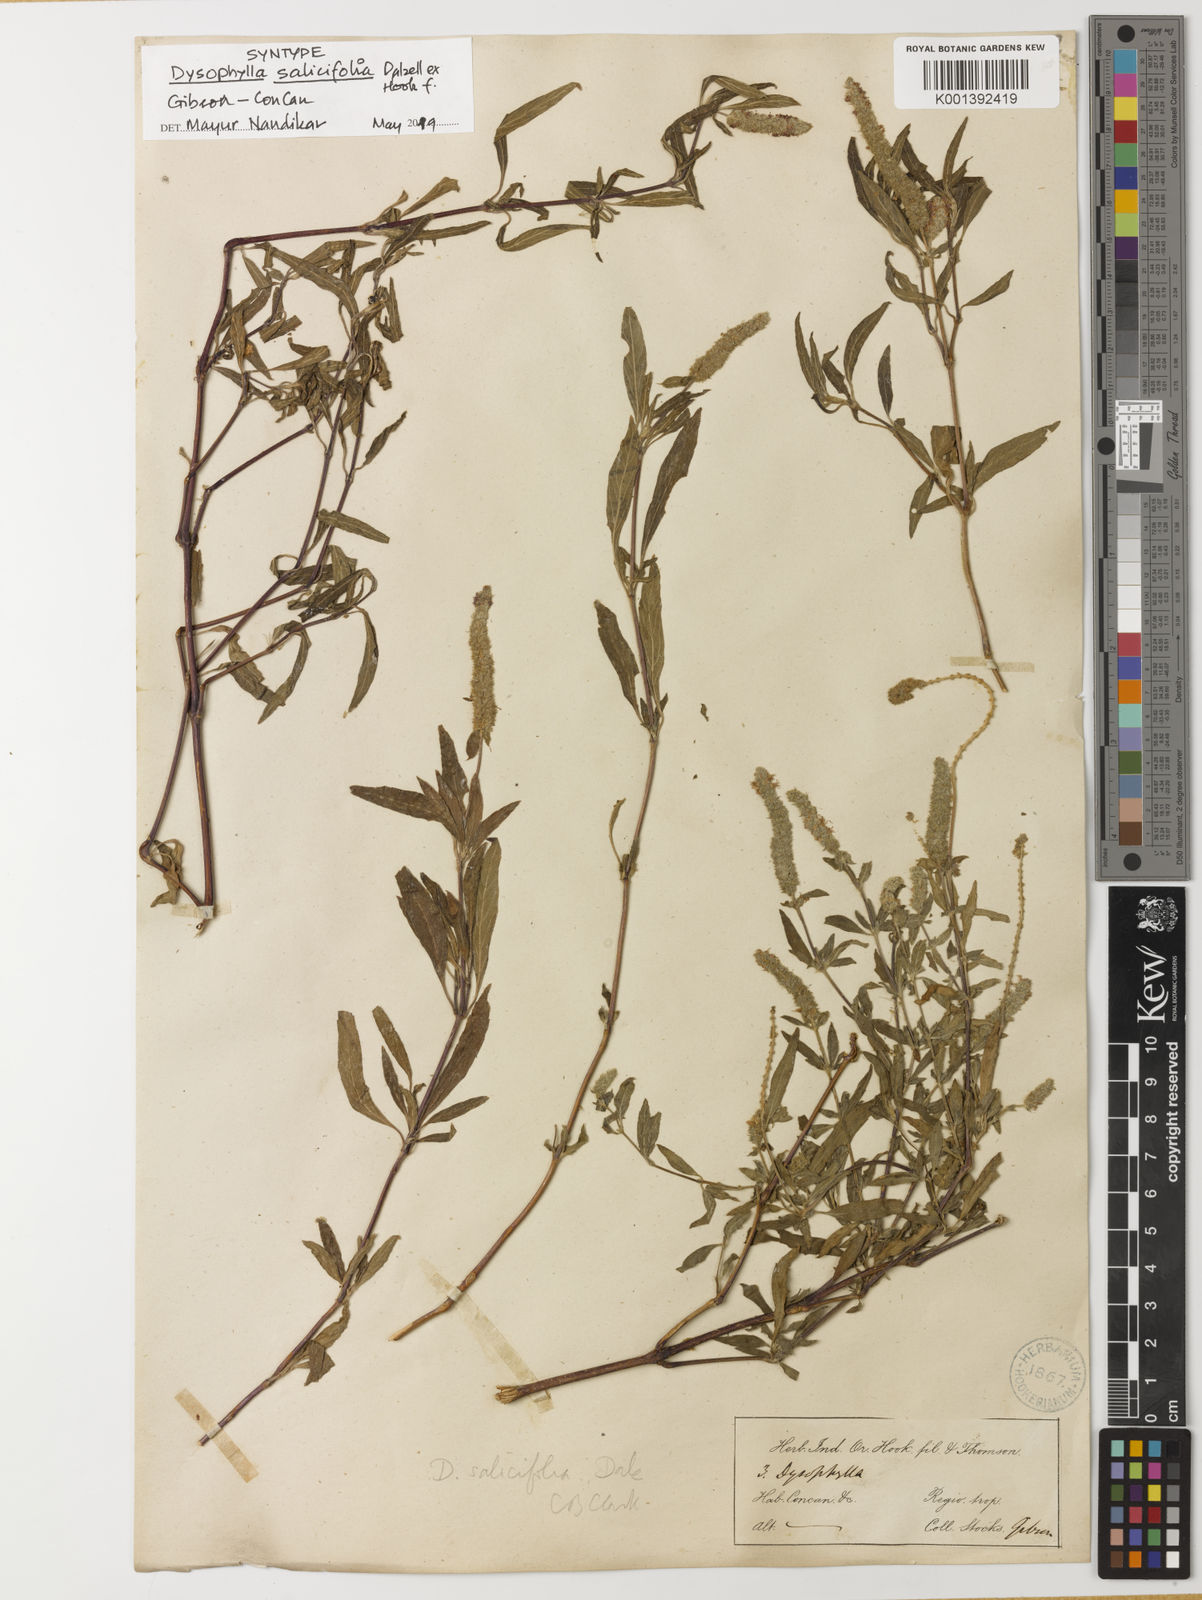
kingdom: Plantae
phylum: Tracheophyta
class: Magnoliopsida
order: Lamiales
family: Lamiaceae
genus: Pogostemon
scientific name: Pogostemon salicifolius
